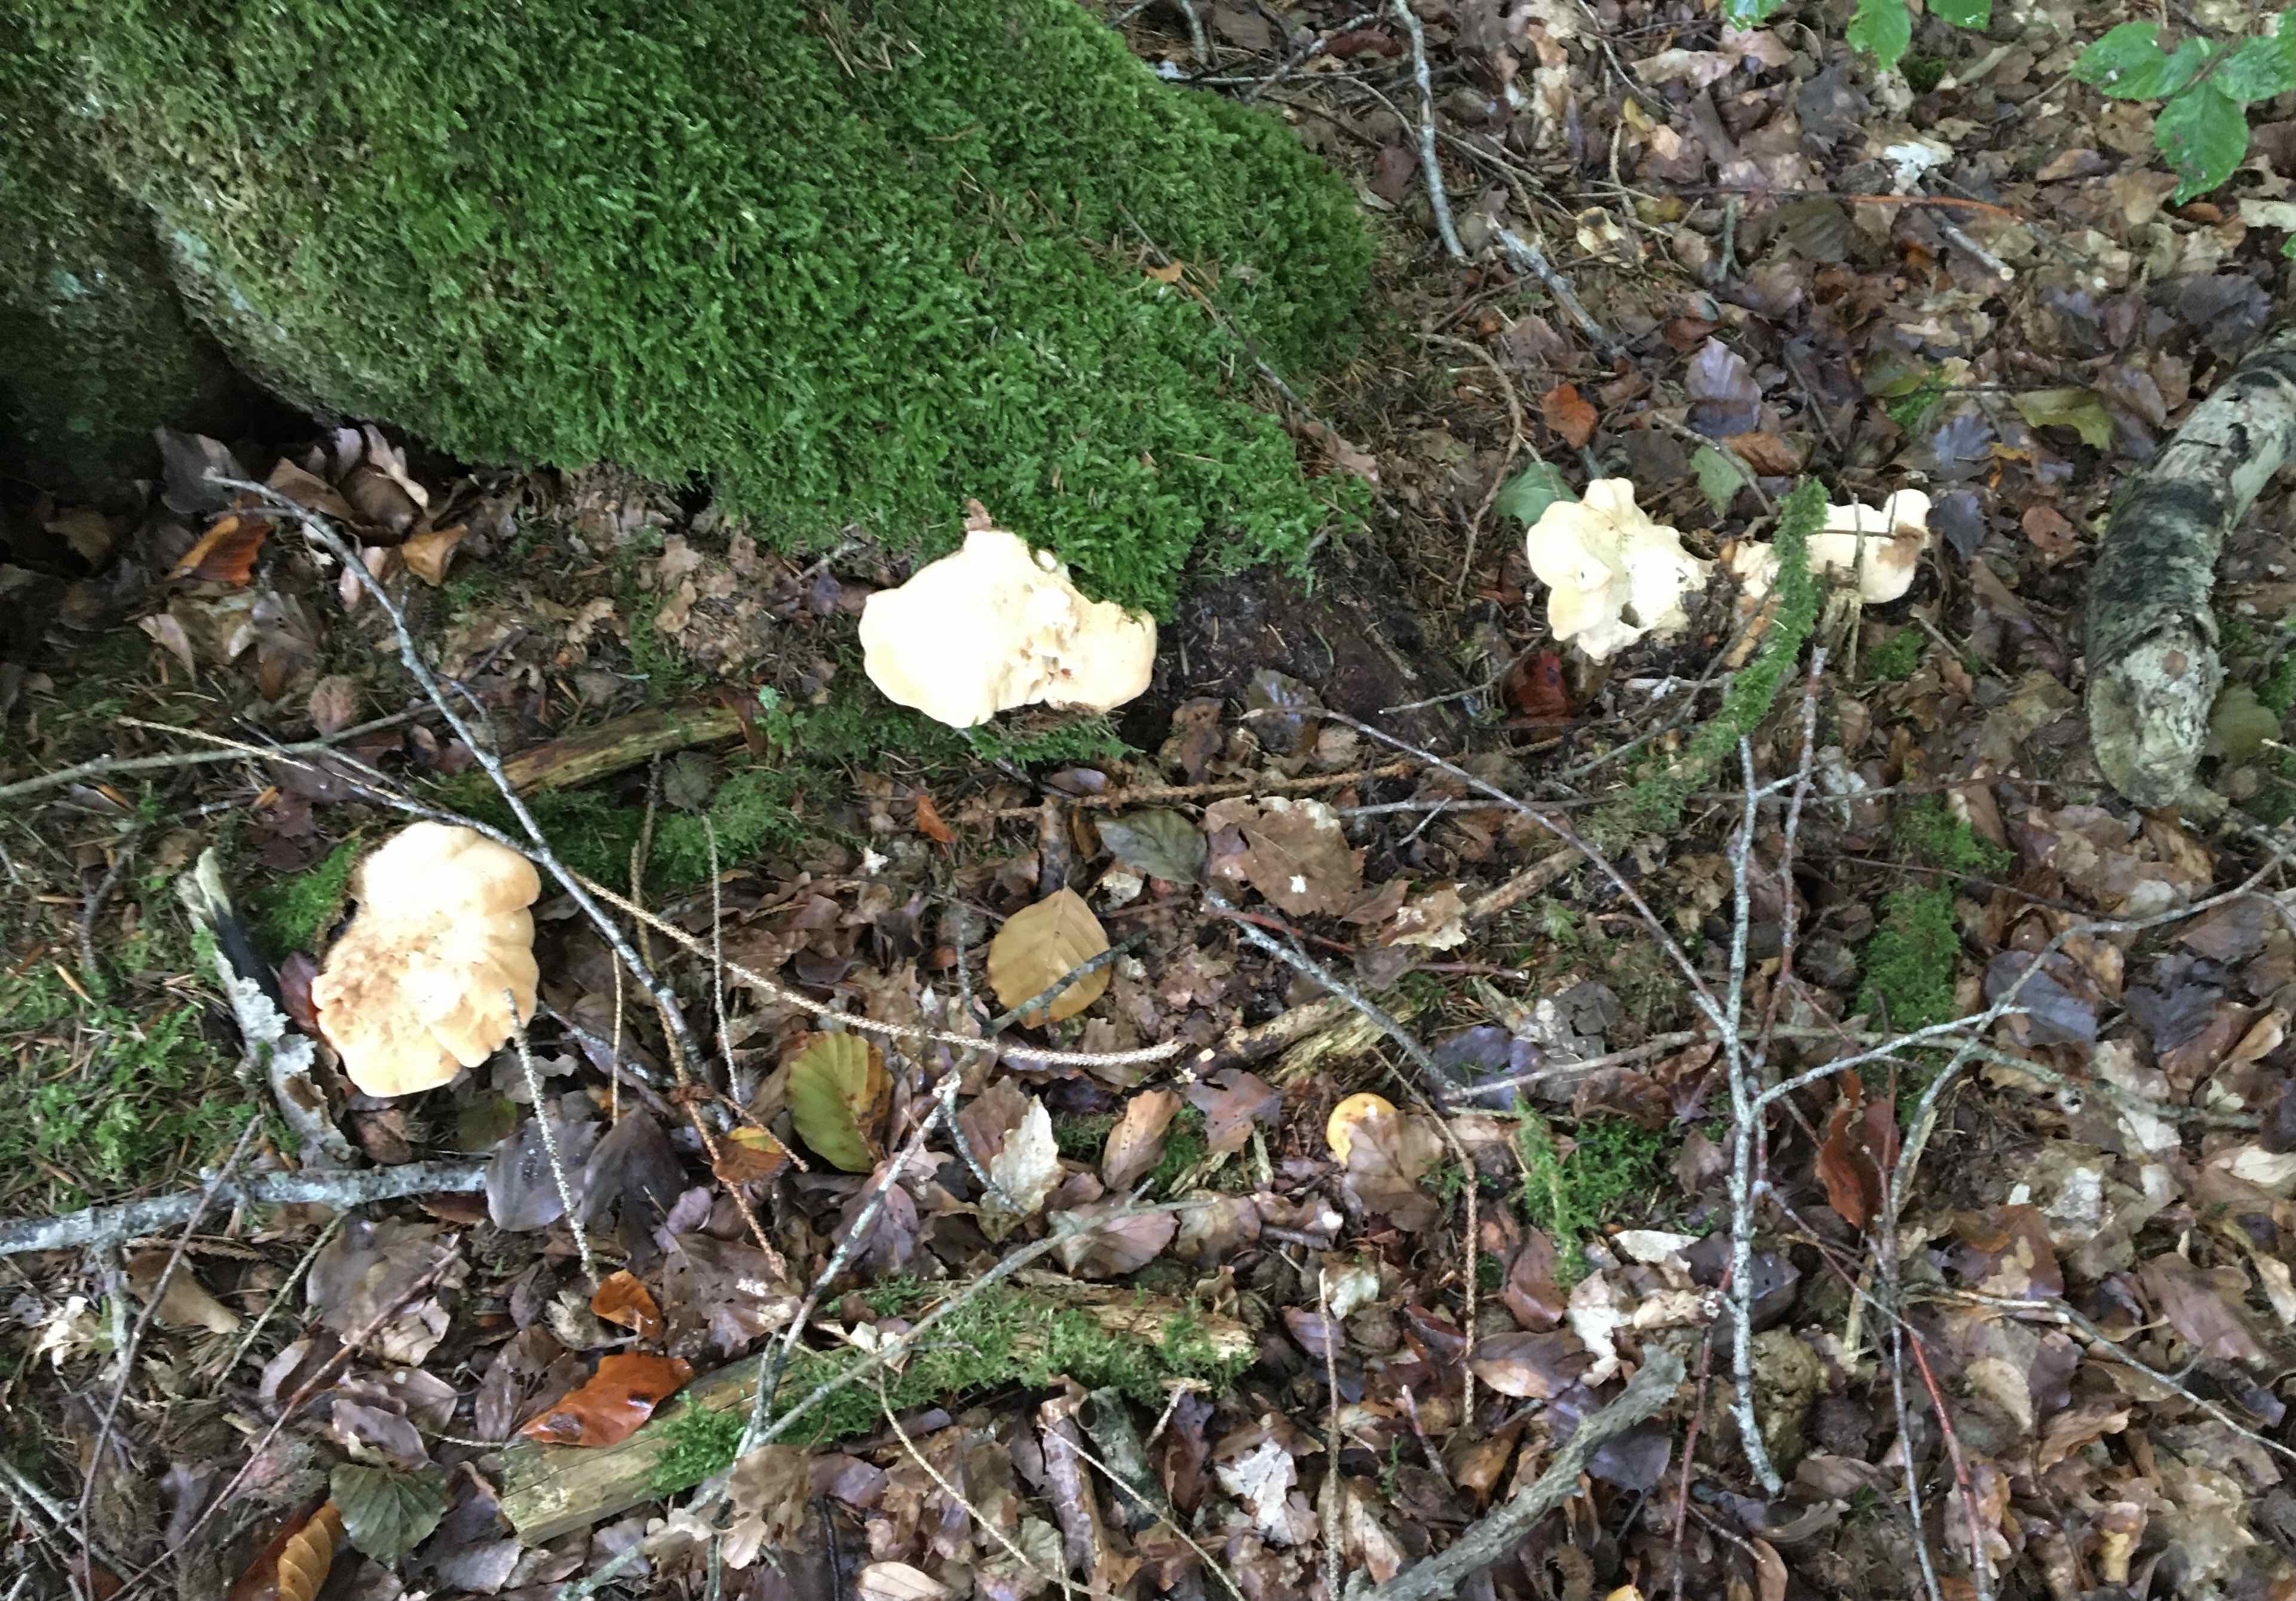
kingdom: Fungi
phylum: Basidiomycota
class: Agaricomycetes
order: Cantharellales
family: Hydnaceae
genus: Hydnum
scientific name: Hydnum repandum
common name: almindelig pigsvamp
